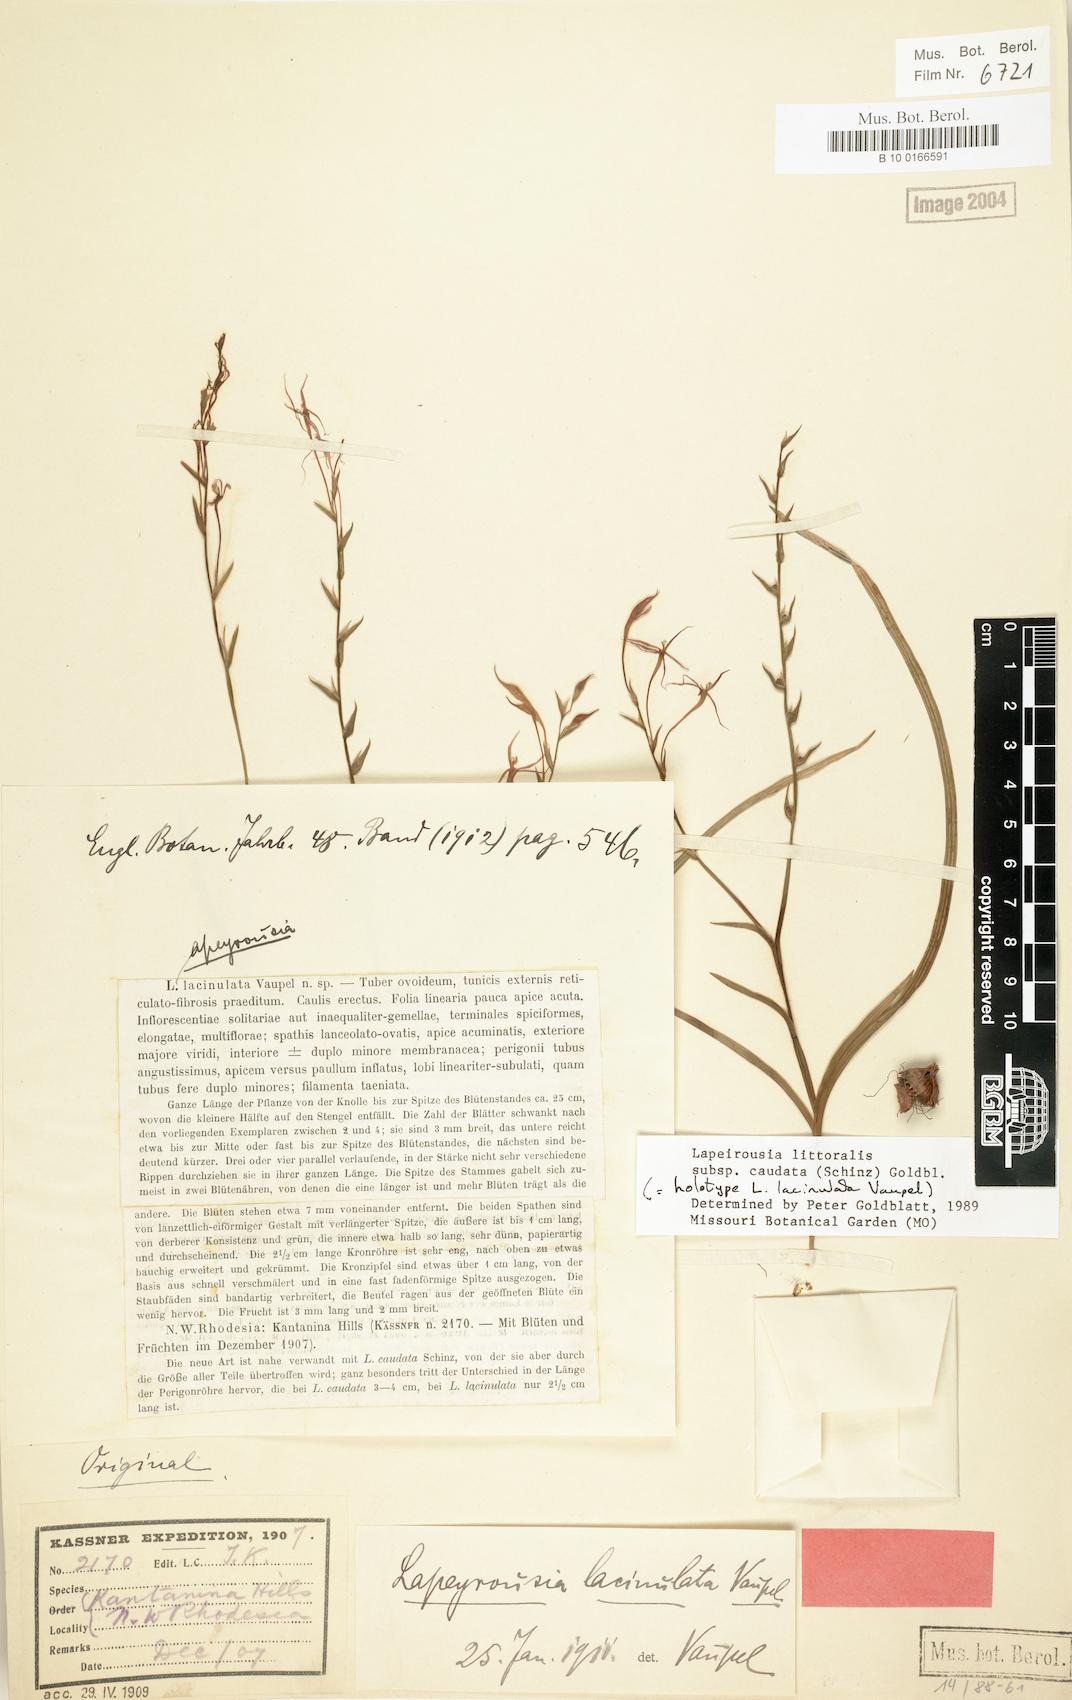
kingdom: Plantae
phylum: Tracheophyta
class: Liliopsida
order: Asparagales
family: Iridaceae
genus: Lapeirousia
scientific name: Lapeirousia caudata
